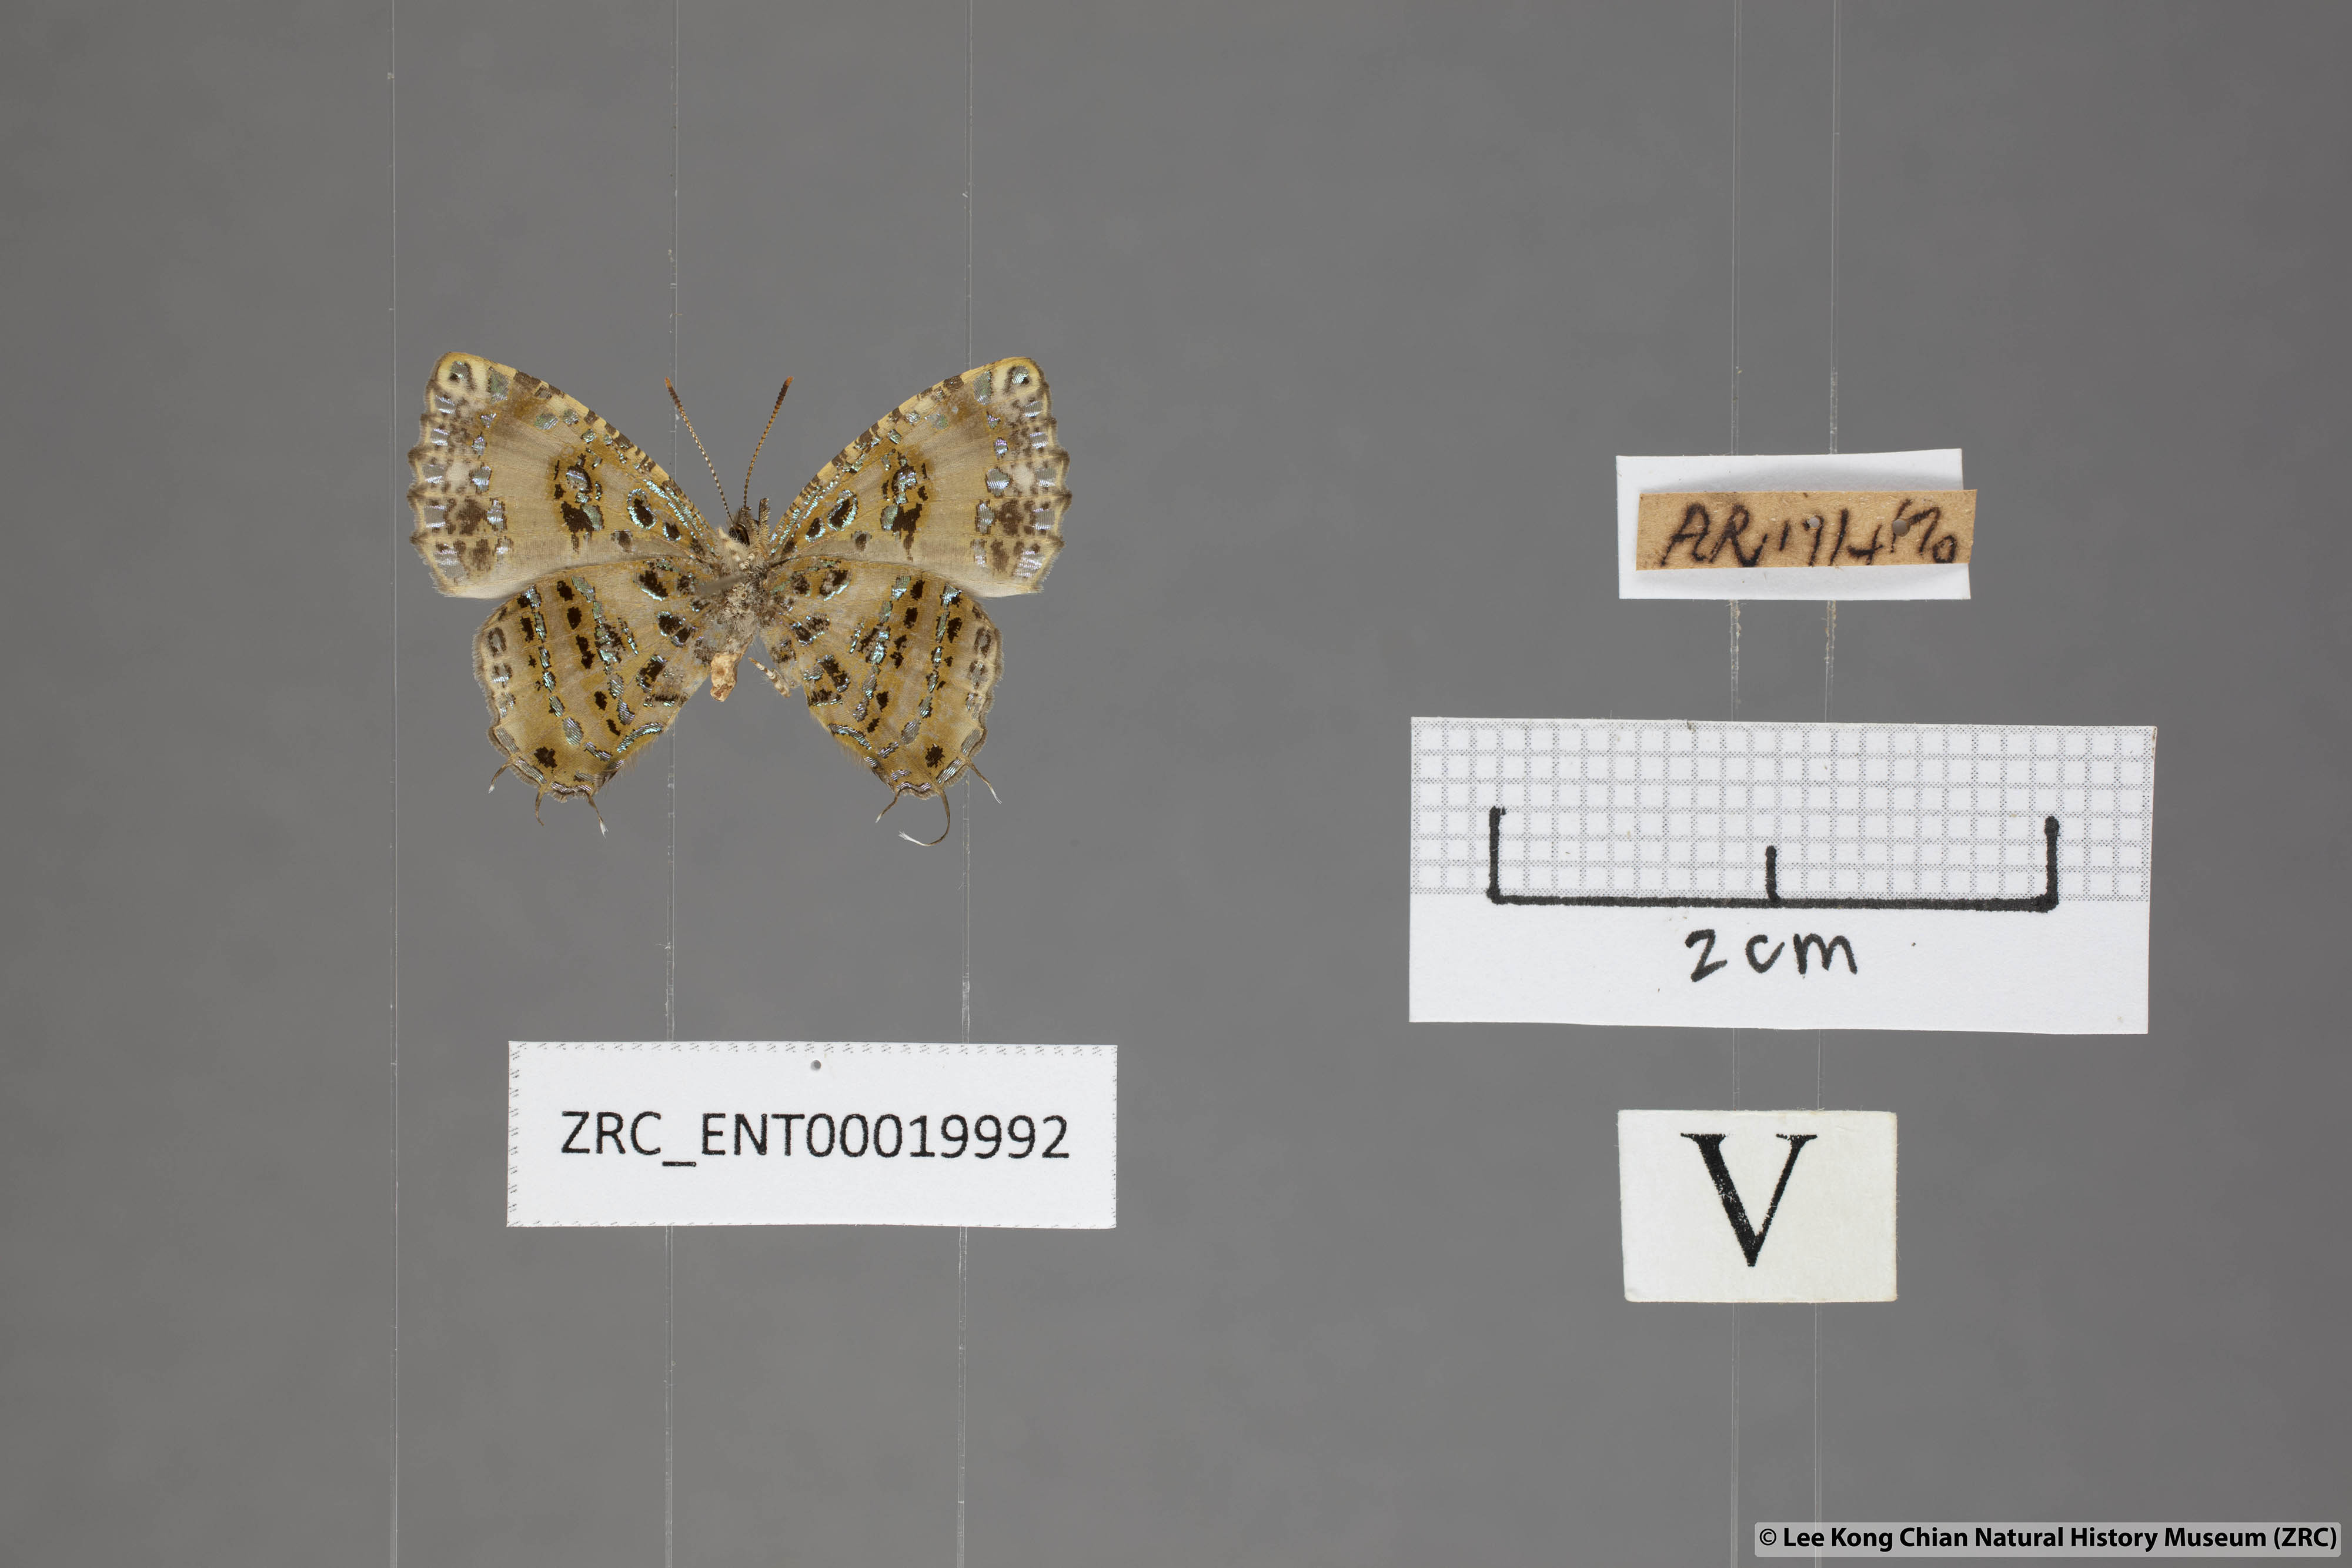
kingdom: Animalia
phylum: Arthropoda
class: Insecta
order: Lepidoptera
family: Lycaenidae
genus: Catapaecilma
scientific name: Catapaecilma elegans
